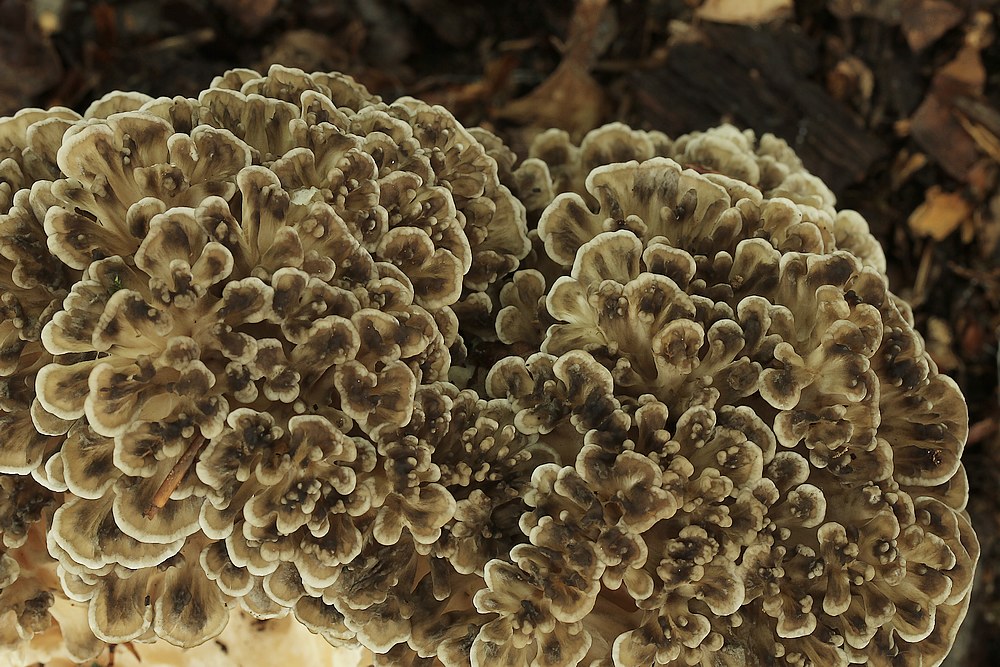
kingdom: Fungi
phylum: Basidiomycota
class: Agaricomycetes
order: Polyporales
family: Grifolaceae
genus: Grifola
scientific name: Grifola frondosa
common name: tueporesvamp
